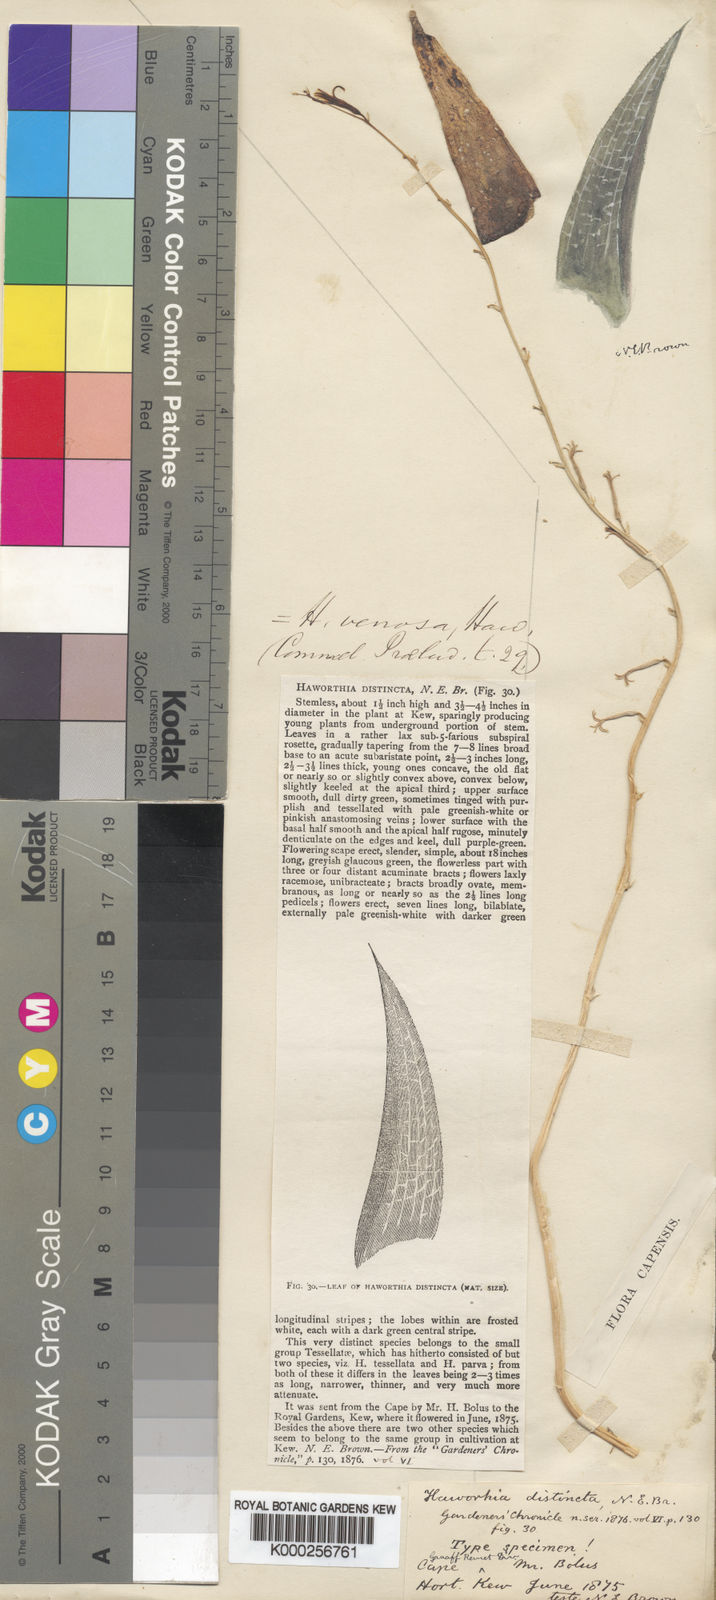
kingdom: Plantae
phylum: Tracheophyta
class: Liliopsida
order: Asparagales
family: Asphodelaceae
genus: Haworthiopsis
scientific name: Haworthiopsis venosa
